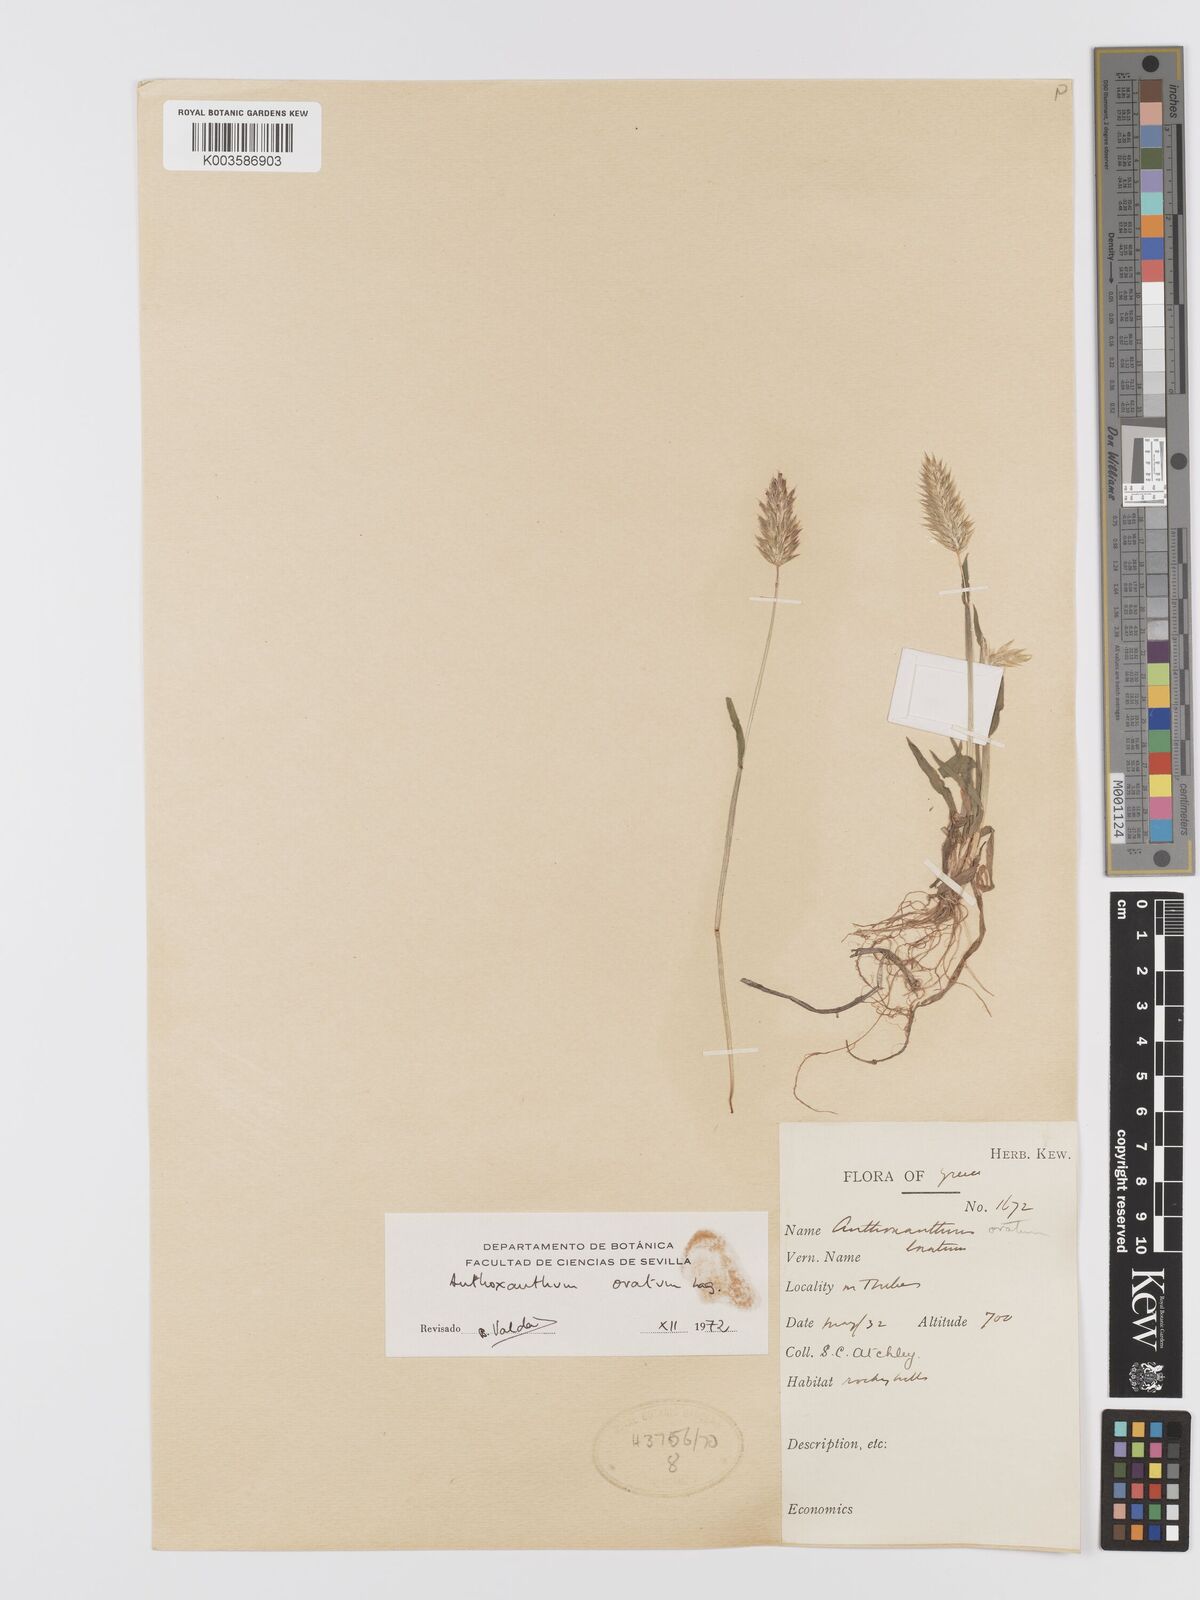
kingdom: Plantae
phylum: Tracheophyta
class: Liliopsida
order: Poales
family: Poaceae
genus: Anthoxanthum
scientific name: Anthoxanthum ovatum
